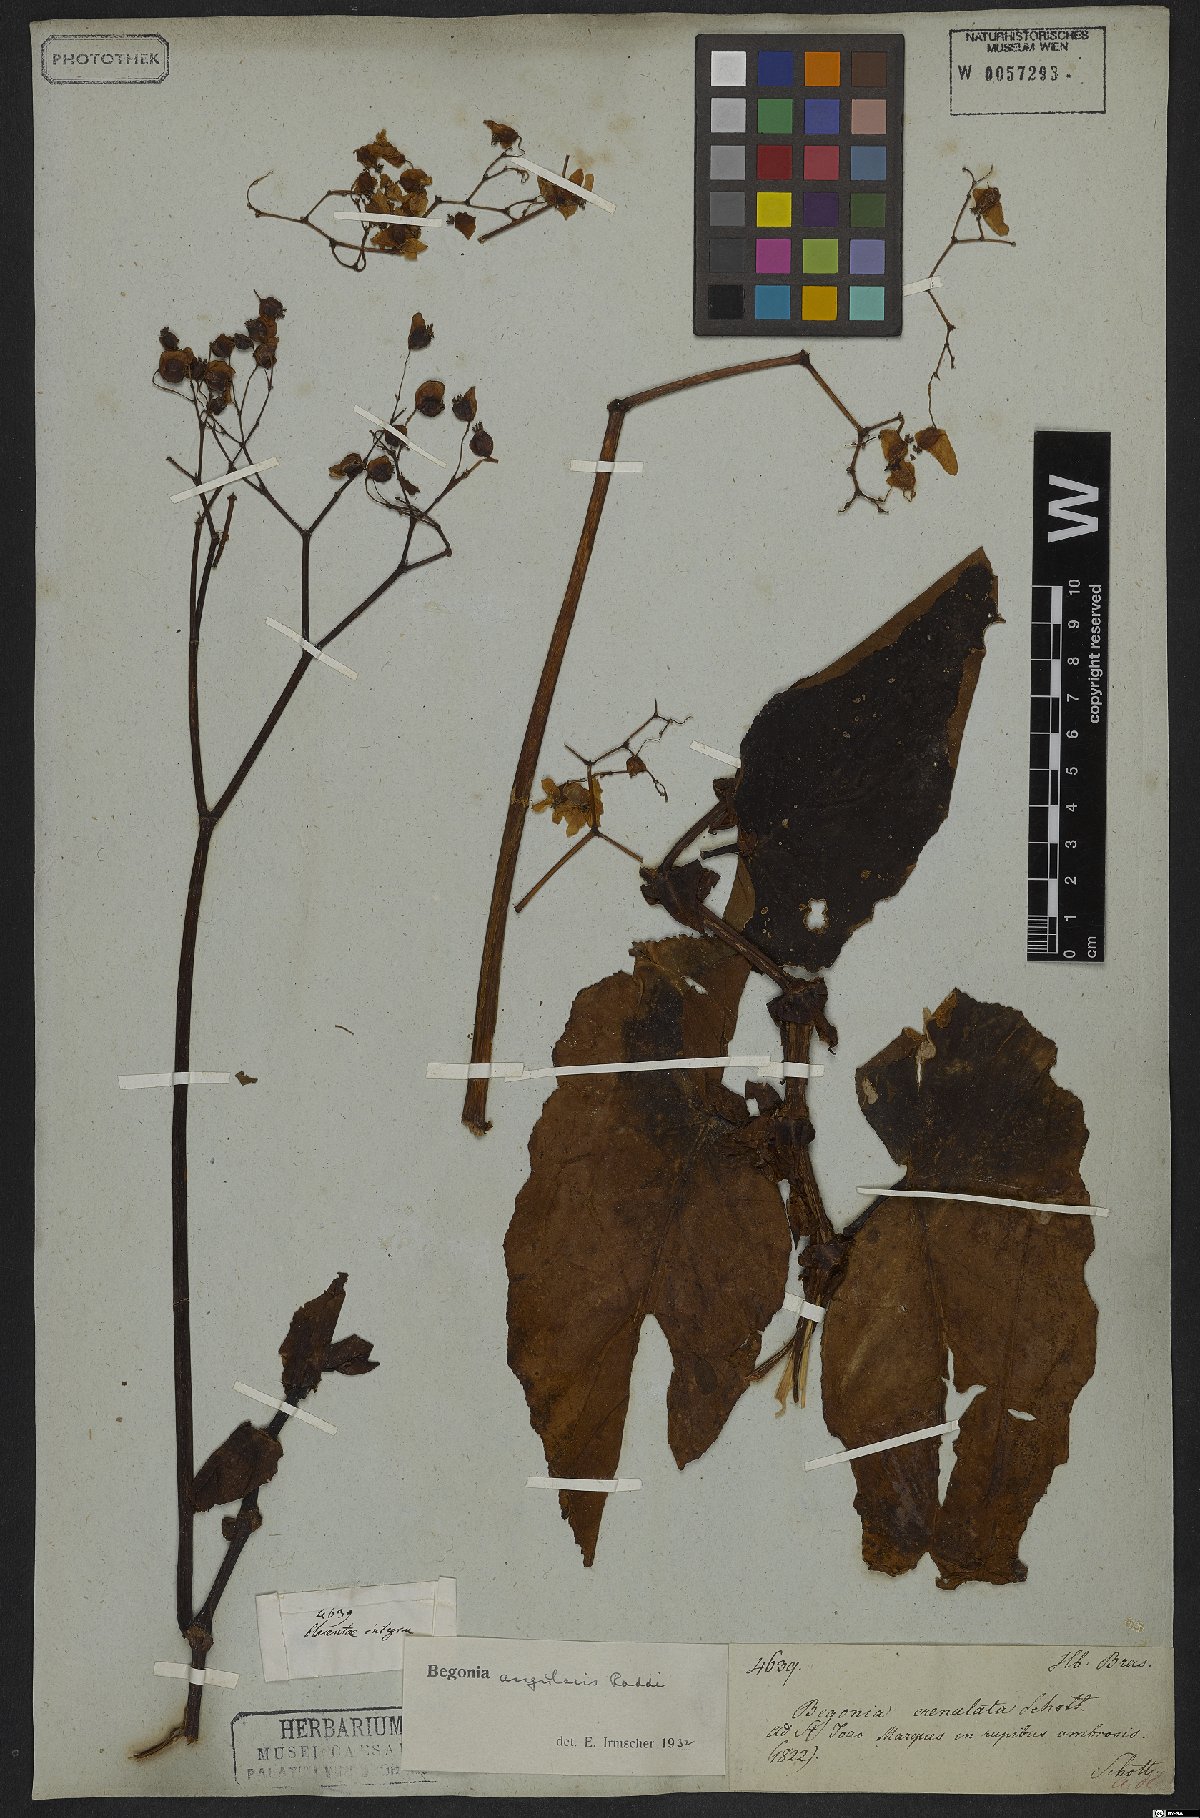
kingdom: Plantae
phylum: Tracheophyta
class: Magnoliopsida
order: Cucurbitales
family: Begoniaceae
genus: Begonia
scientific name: Begonia angularis
